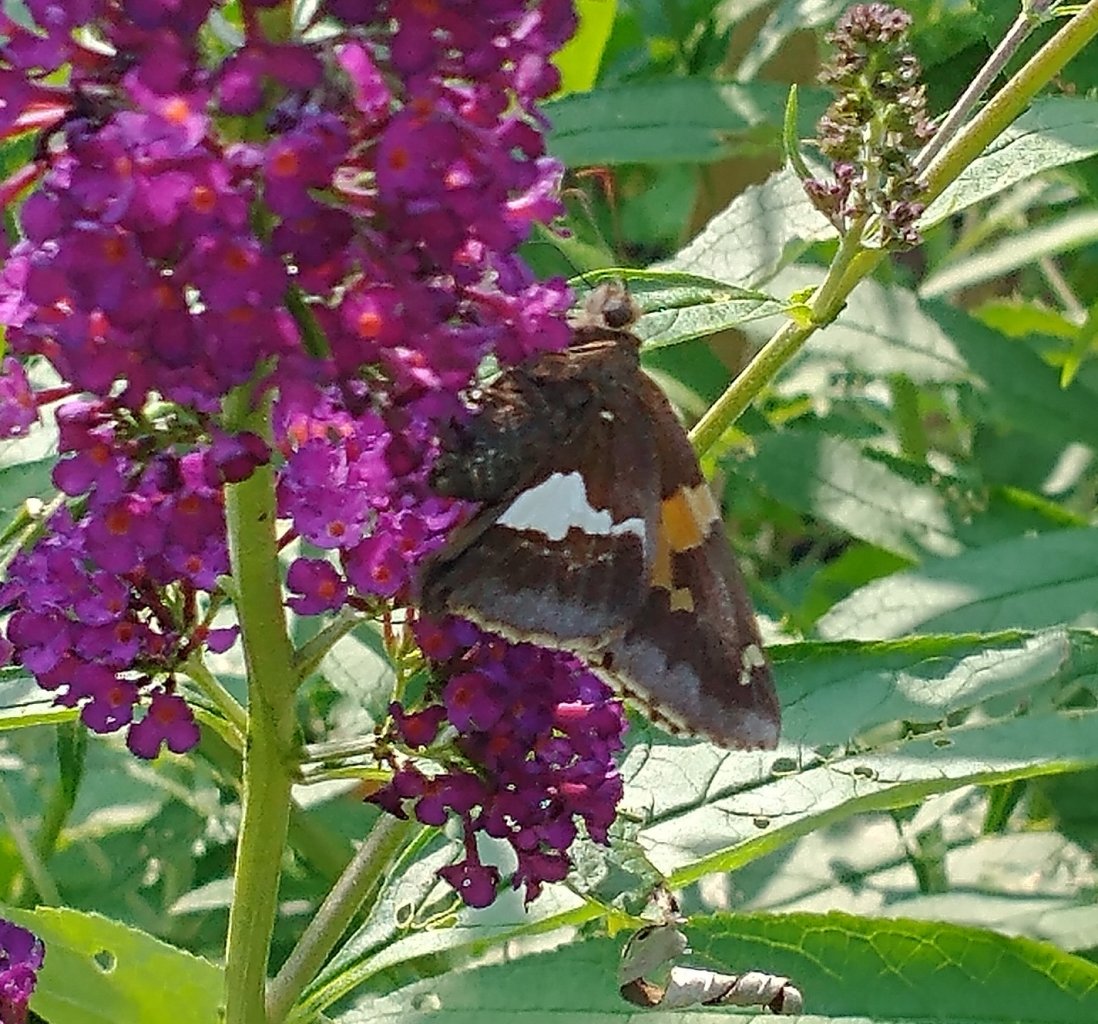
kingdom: Animalia
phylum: Arthropoda
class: Insecta
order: Lepidoptera
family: Hesperiidae
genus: Epargyreus
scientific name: Epargyreus clarus
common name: Silver-spotted Skipper
